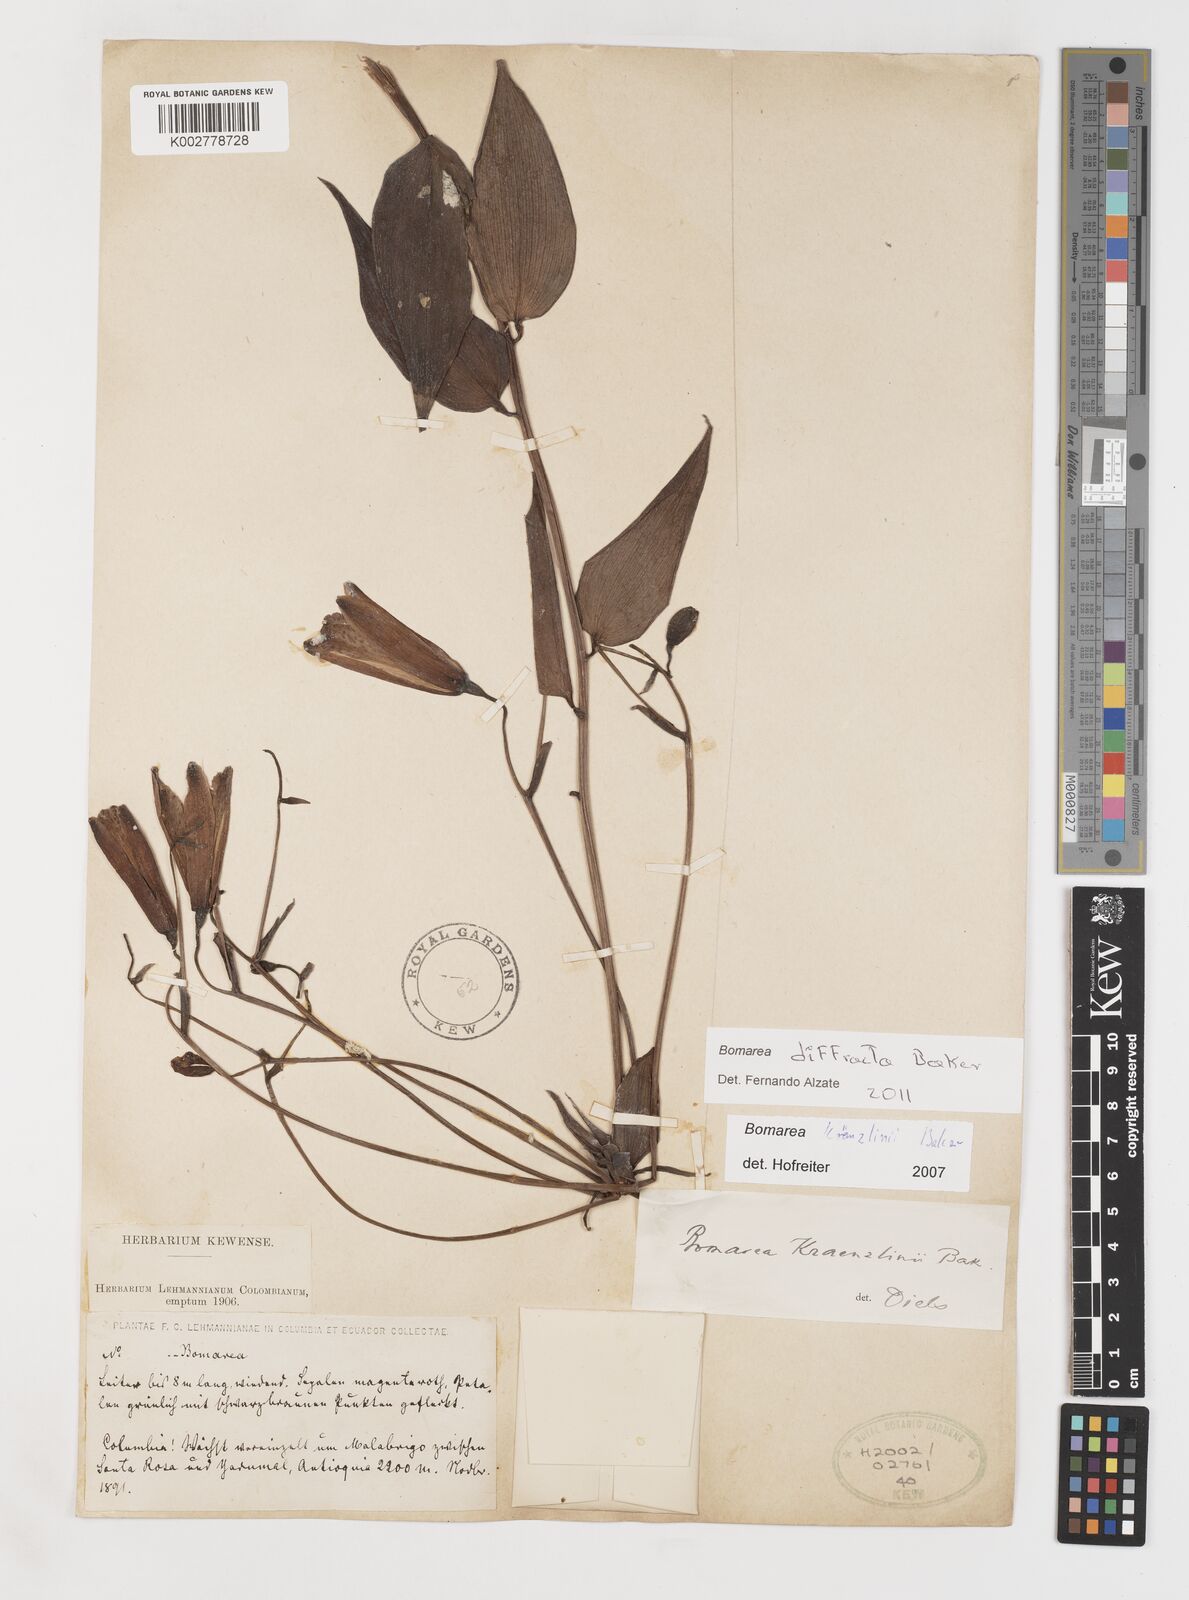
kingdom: Plantae
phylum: Tracheophyta
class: Liliopsida
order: Liliales
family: Alstroemeriaceae
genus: Bomarea
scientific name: Bomarea kraenzlinii
